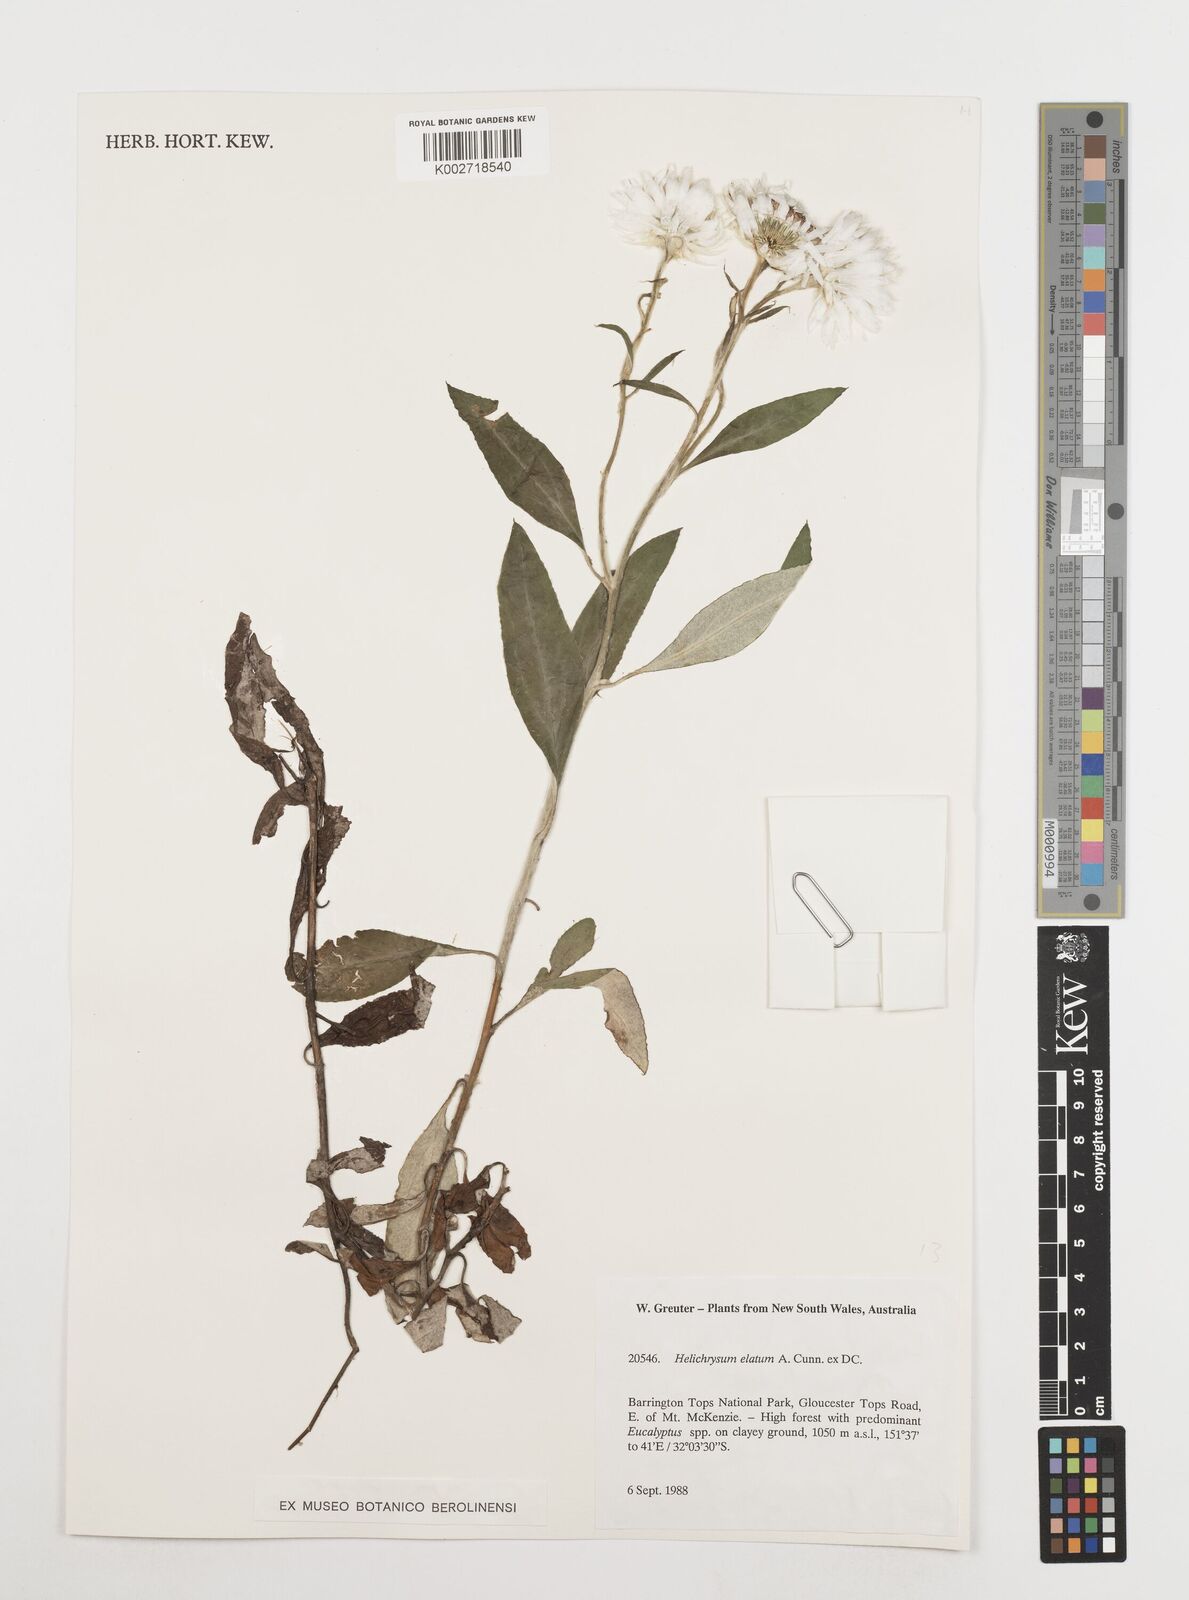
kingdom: Plantae
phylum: Tracheophyta
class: Magnoliopsida
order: Asterales
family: Asteraceae
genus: Leucozoma
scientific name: Leucozoma elatum
